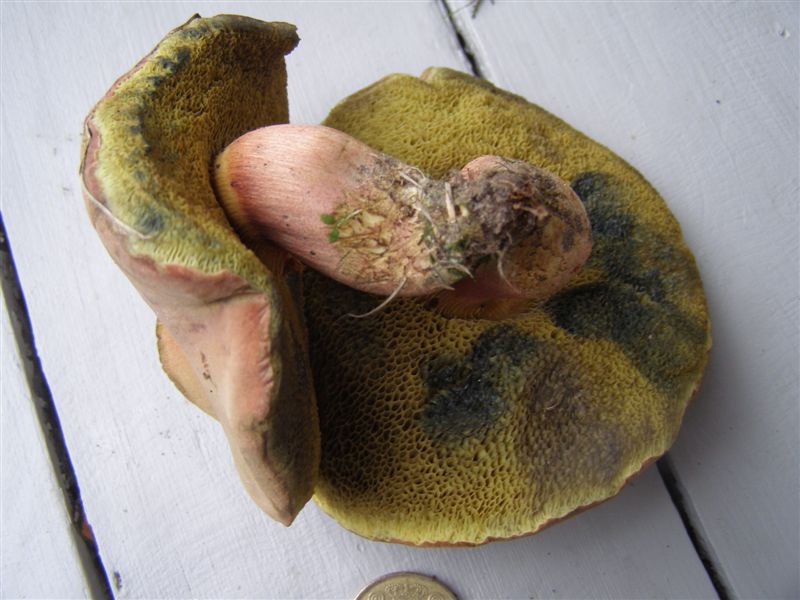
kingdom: Fungi
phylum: Basidiomycota
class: Agaricomycetes
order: Boletales
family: Boletaceae
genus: Hortiboletus
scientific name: Hortiboletus bubalinus
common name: aurora-rørhat
